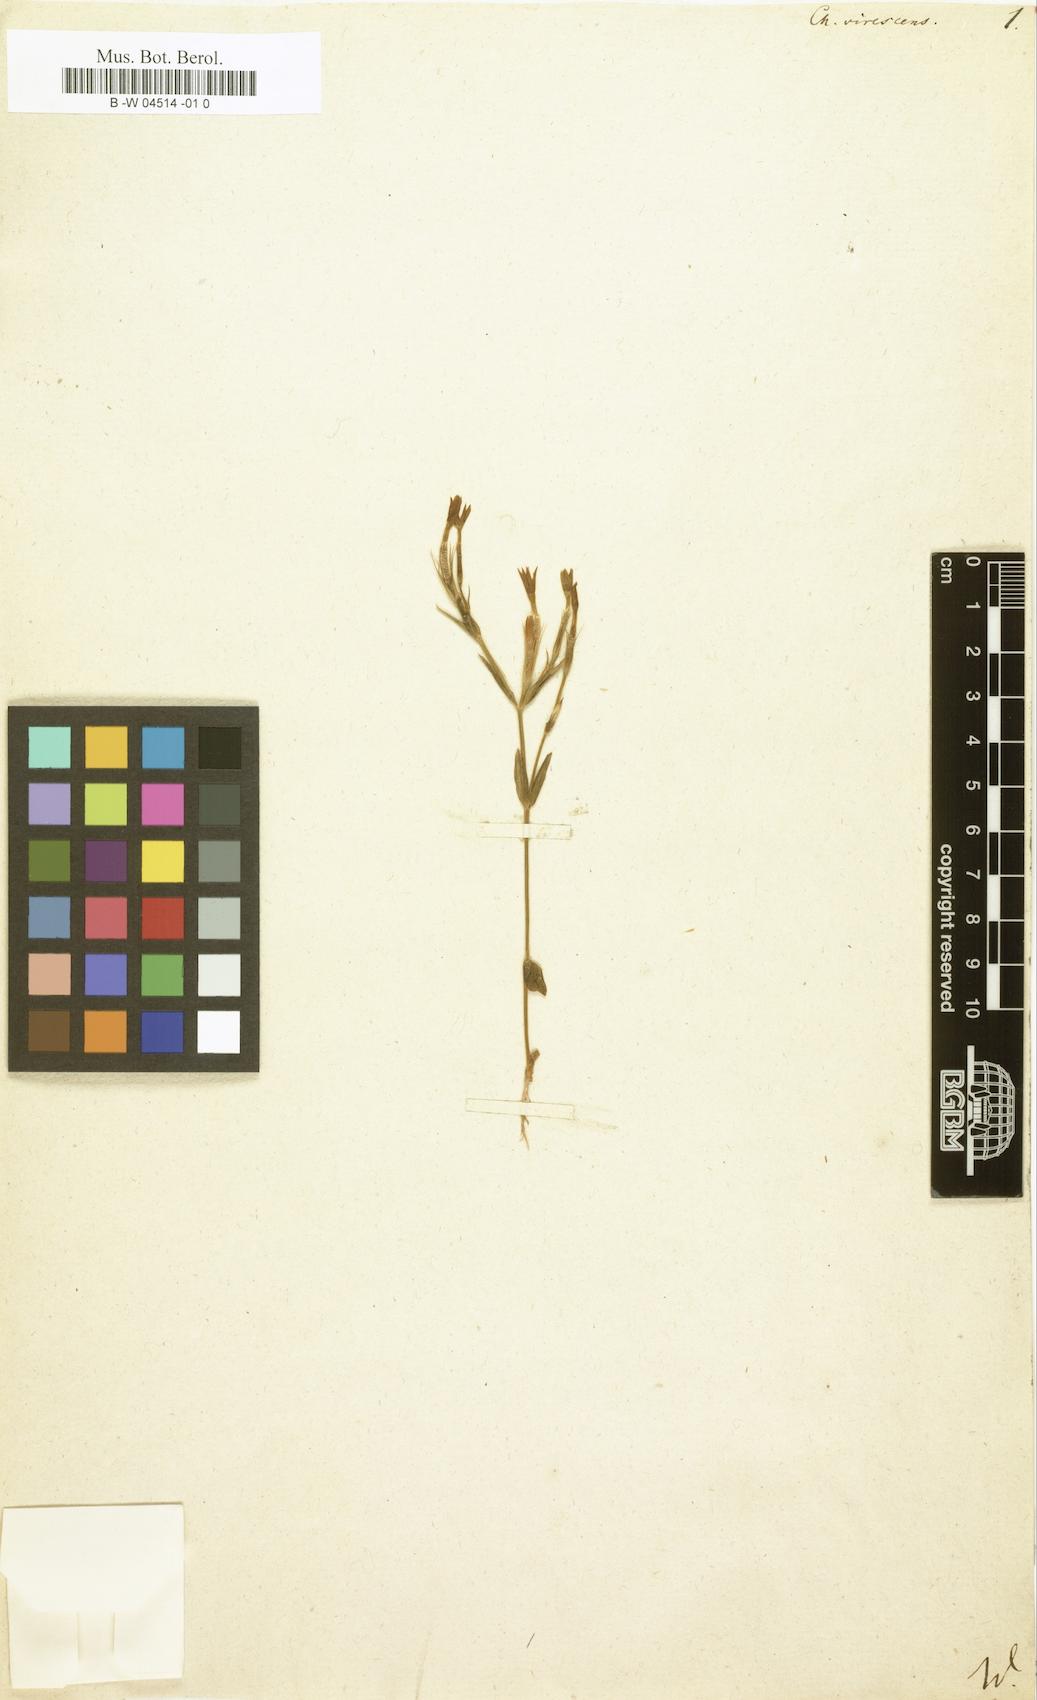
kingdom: Plantae
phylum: Tracheophyta
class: Magnoliopsida
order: Gentianales
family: Gentianaceae
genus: Centaurium
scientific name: Centaurium maritimum
